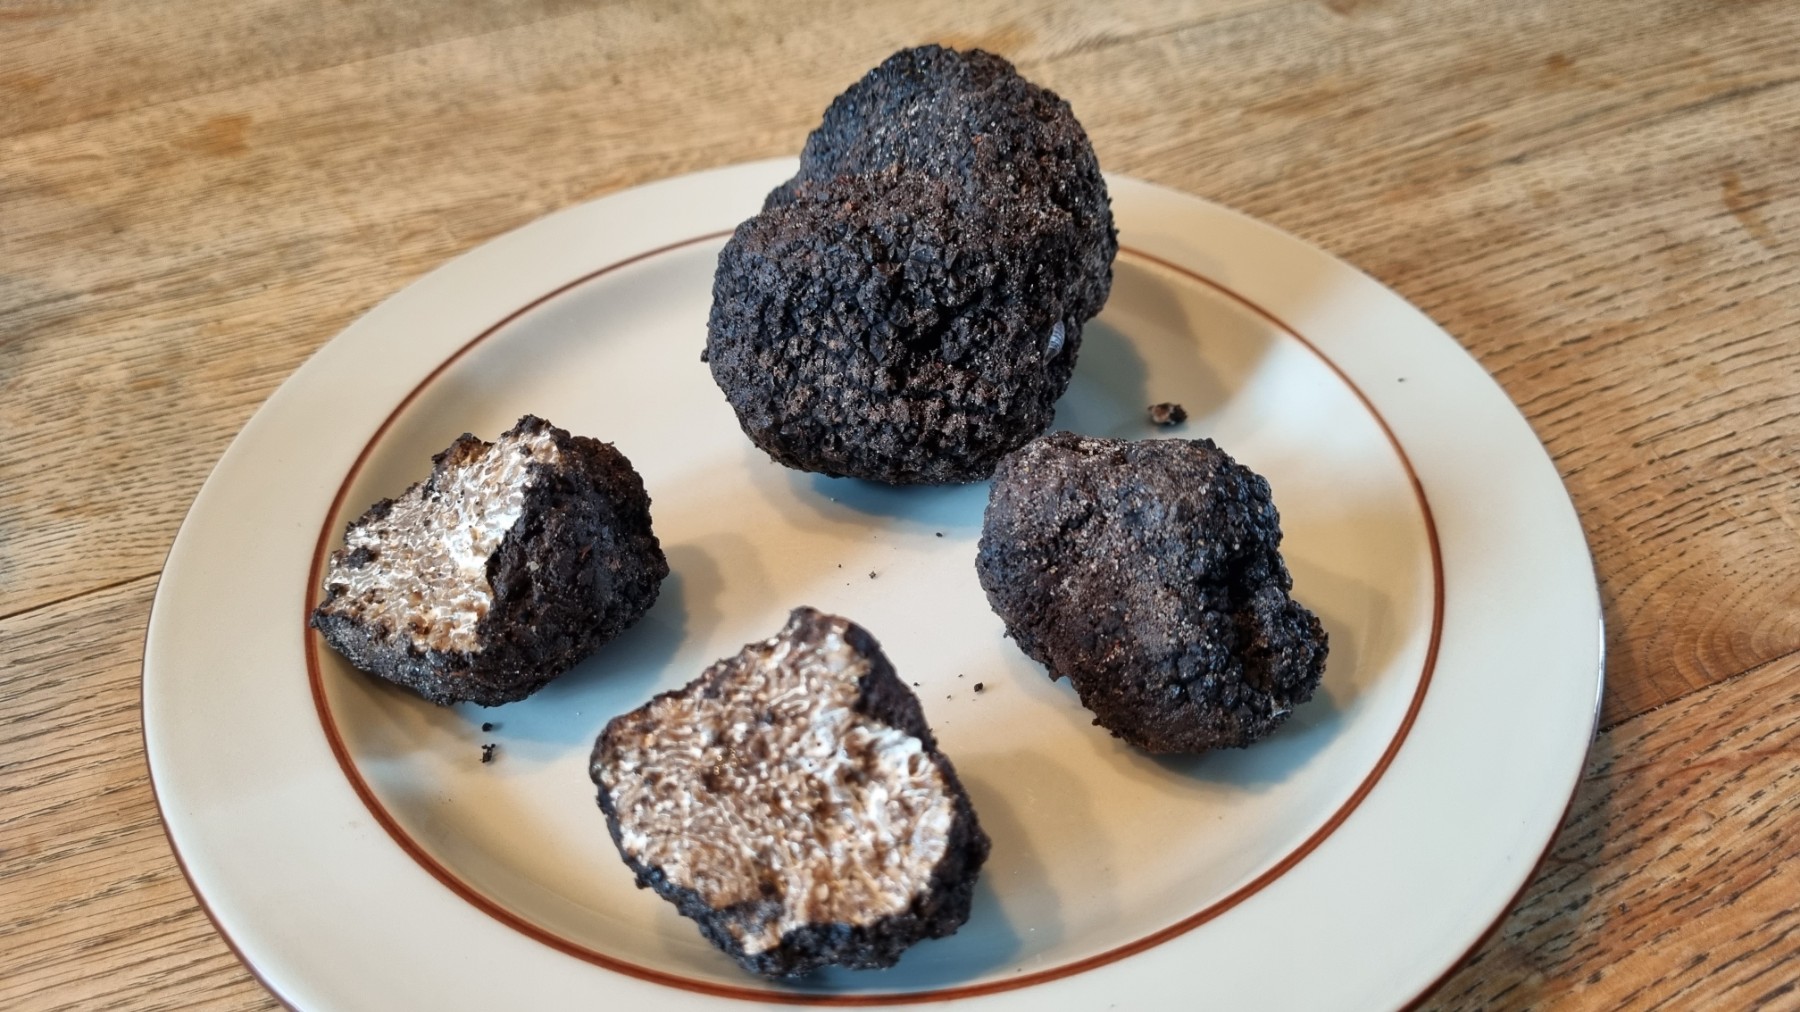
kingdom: Fungi
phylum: Ascomycota
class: Pezizomycetes
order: Pezizales
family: Tuberaceae
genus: Tuber
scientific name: Tuber aestivum
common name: sommer-trøffel
